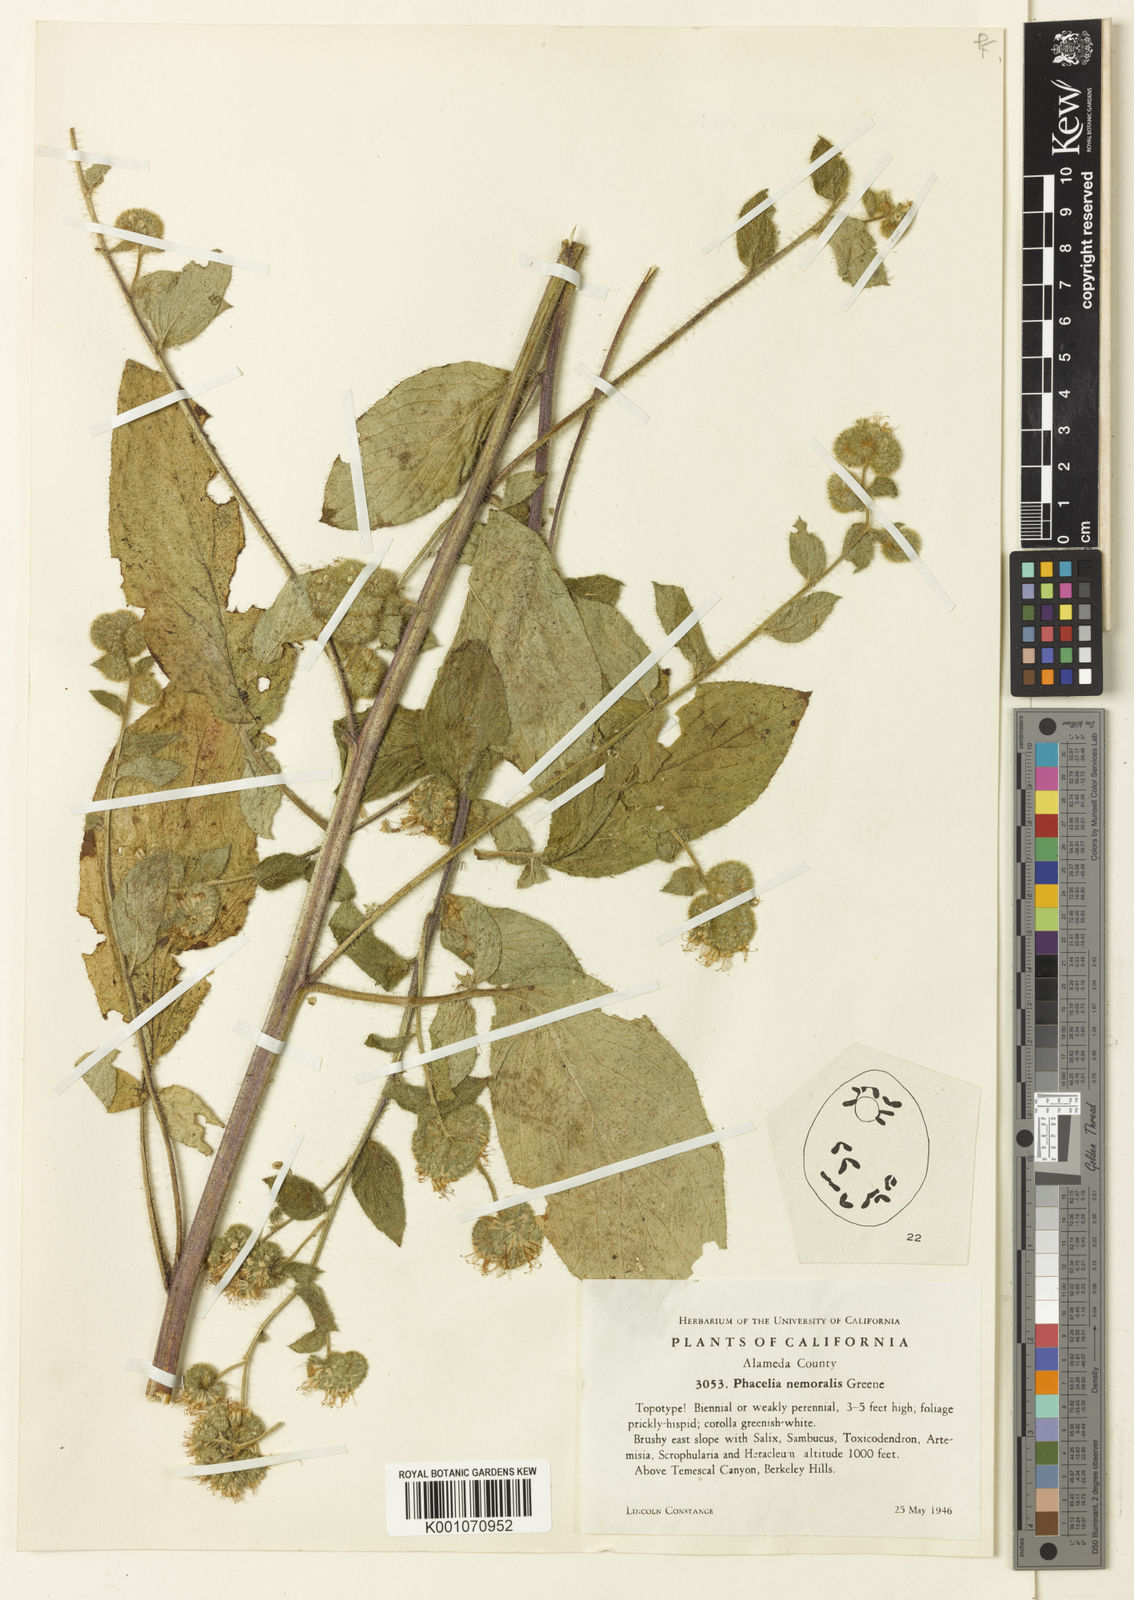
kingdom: Plantae
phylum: Tracheophyta
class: Magnoliopsida
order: Boraginales
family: Hydrophyllaceae
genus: Phacelia
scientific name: Phacelia nemoralis
